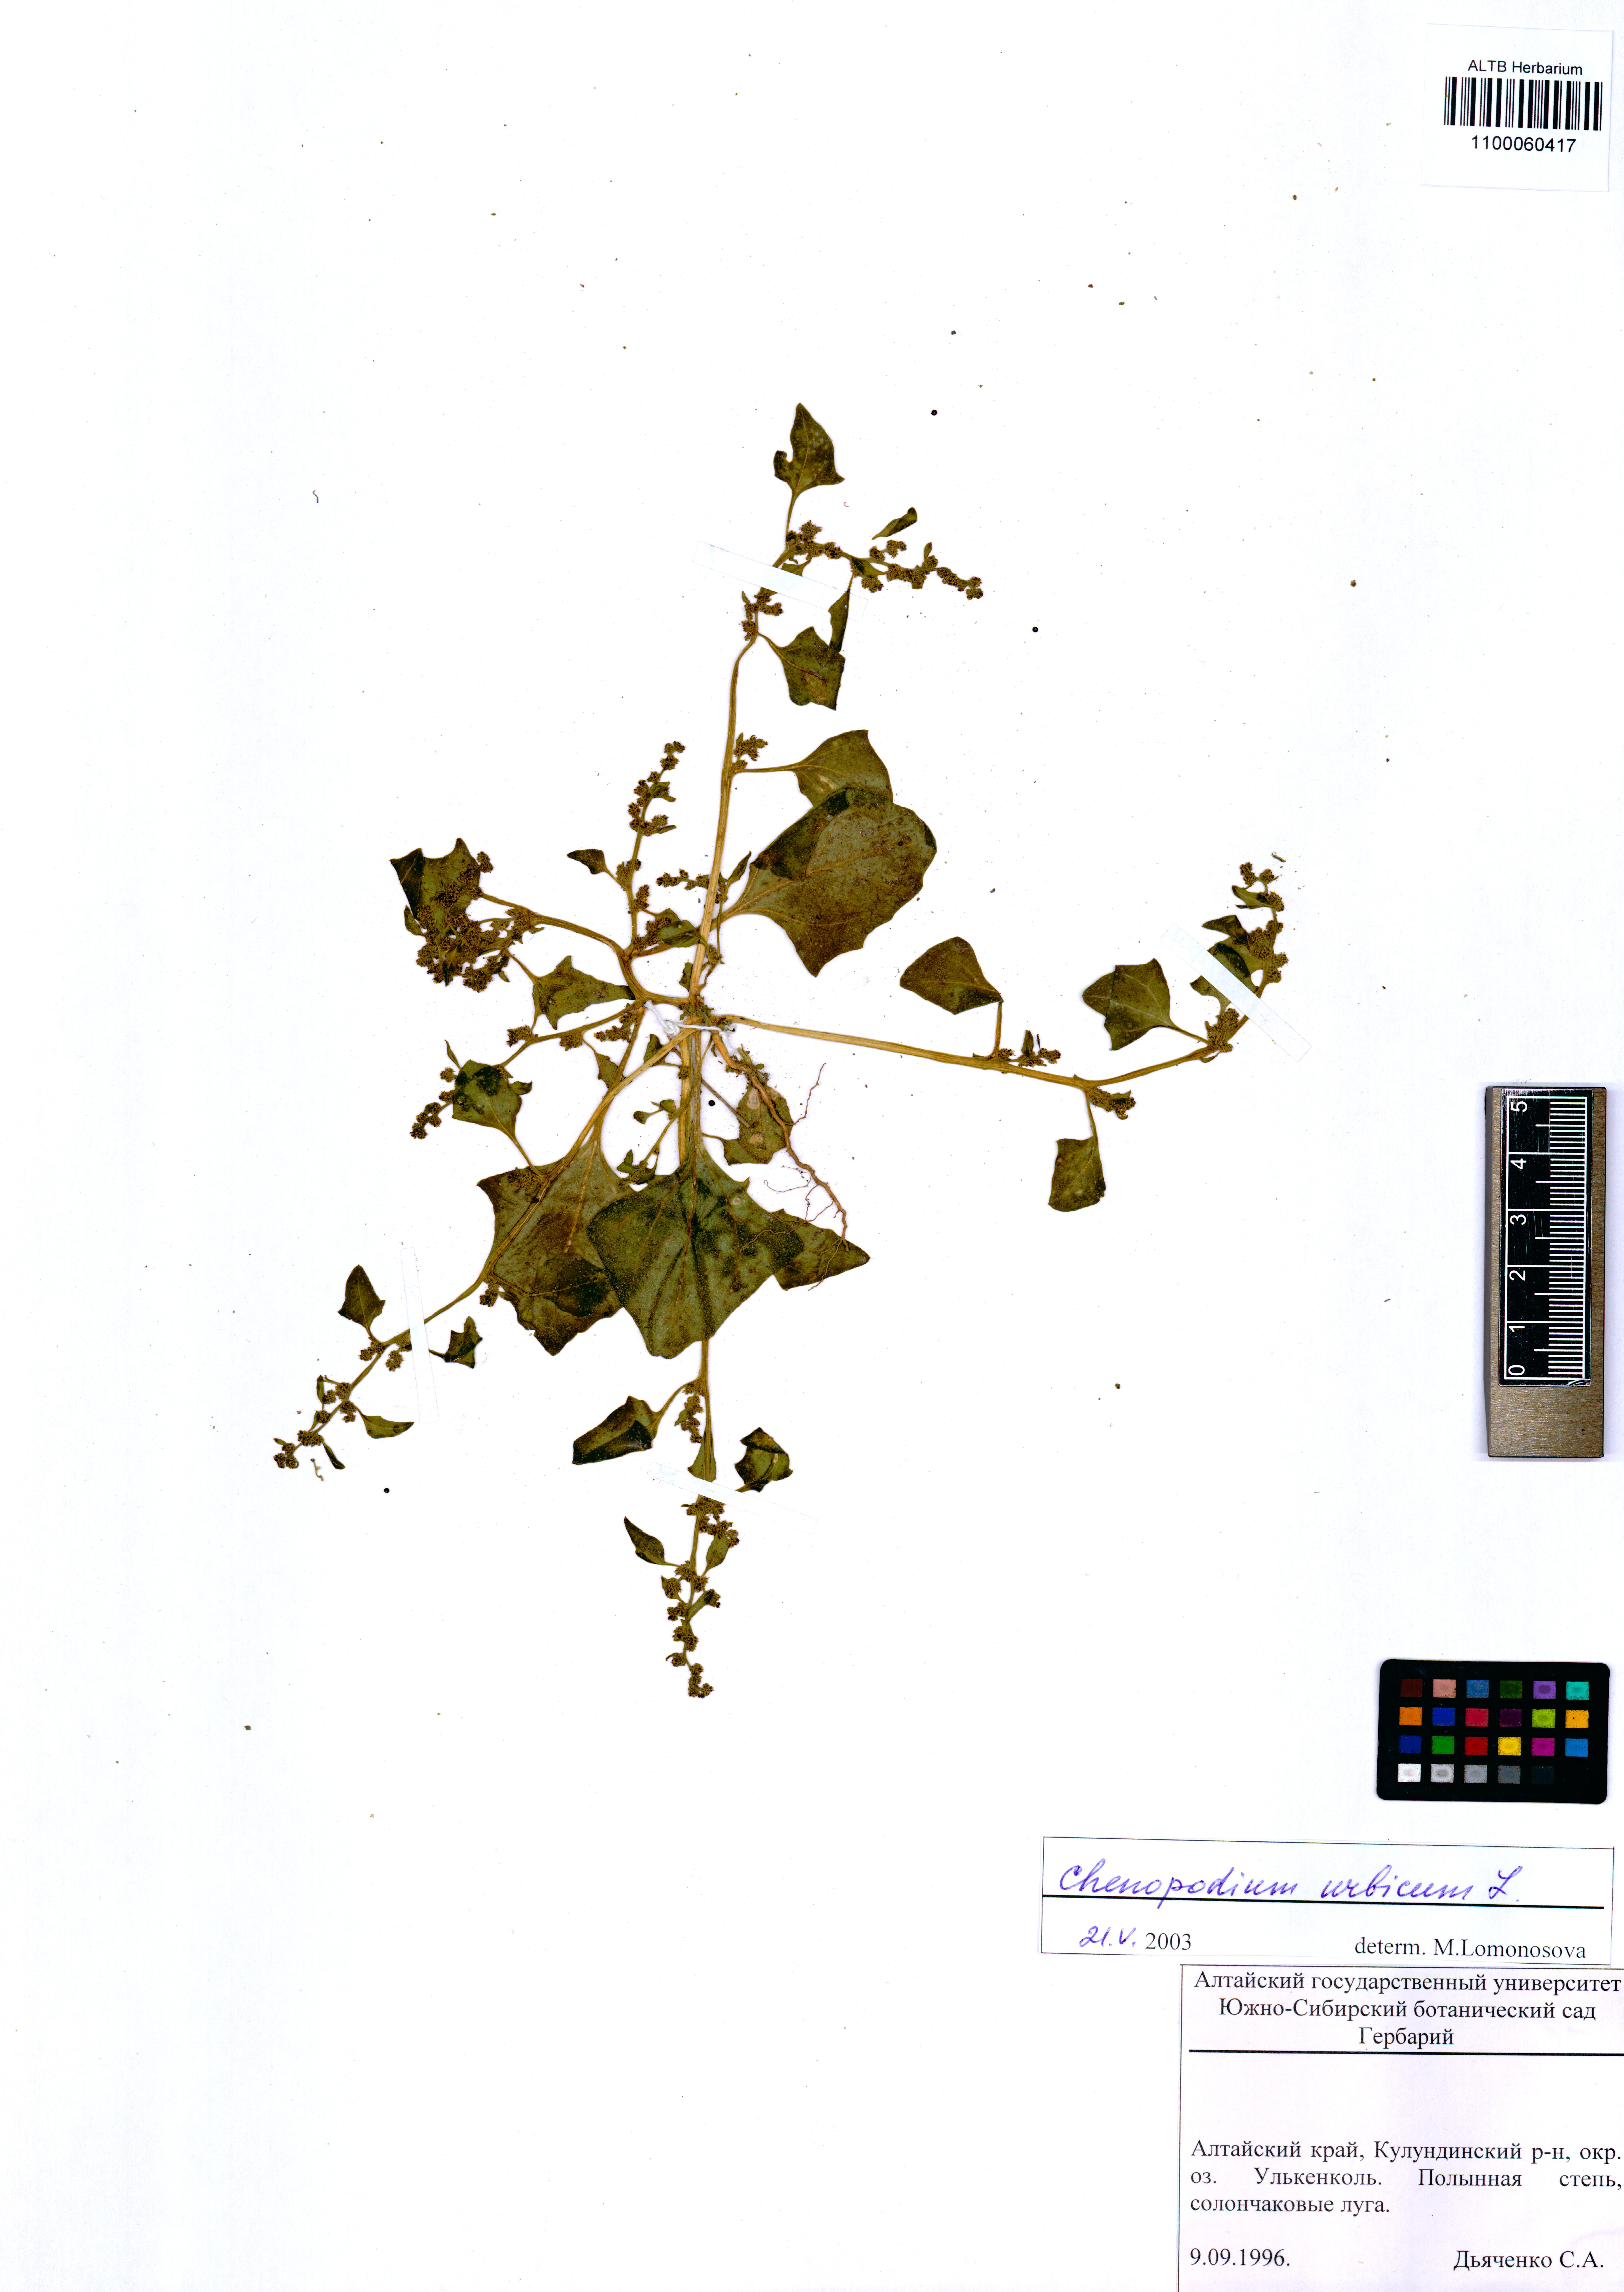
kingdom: Plantae
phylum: Tracheophyta
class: Magnoliopsida
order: Caryophyllales
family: Amaranthaceae
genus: Oxybasis
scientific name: Oxybasis urbica
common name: City goosefoot
